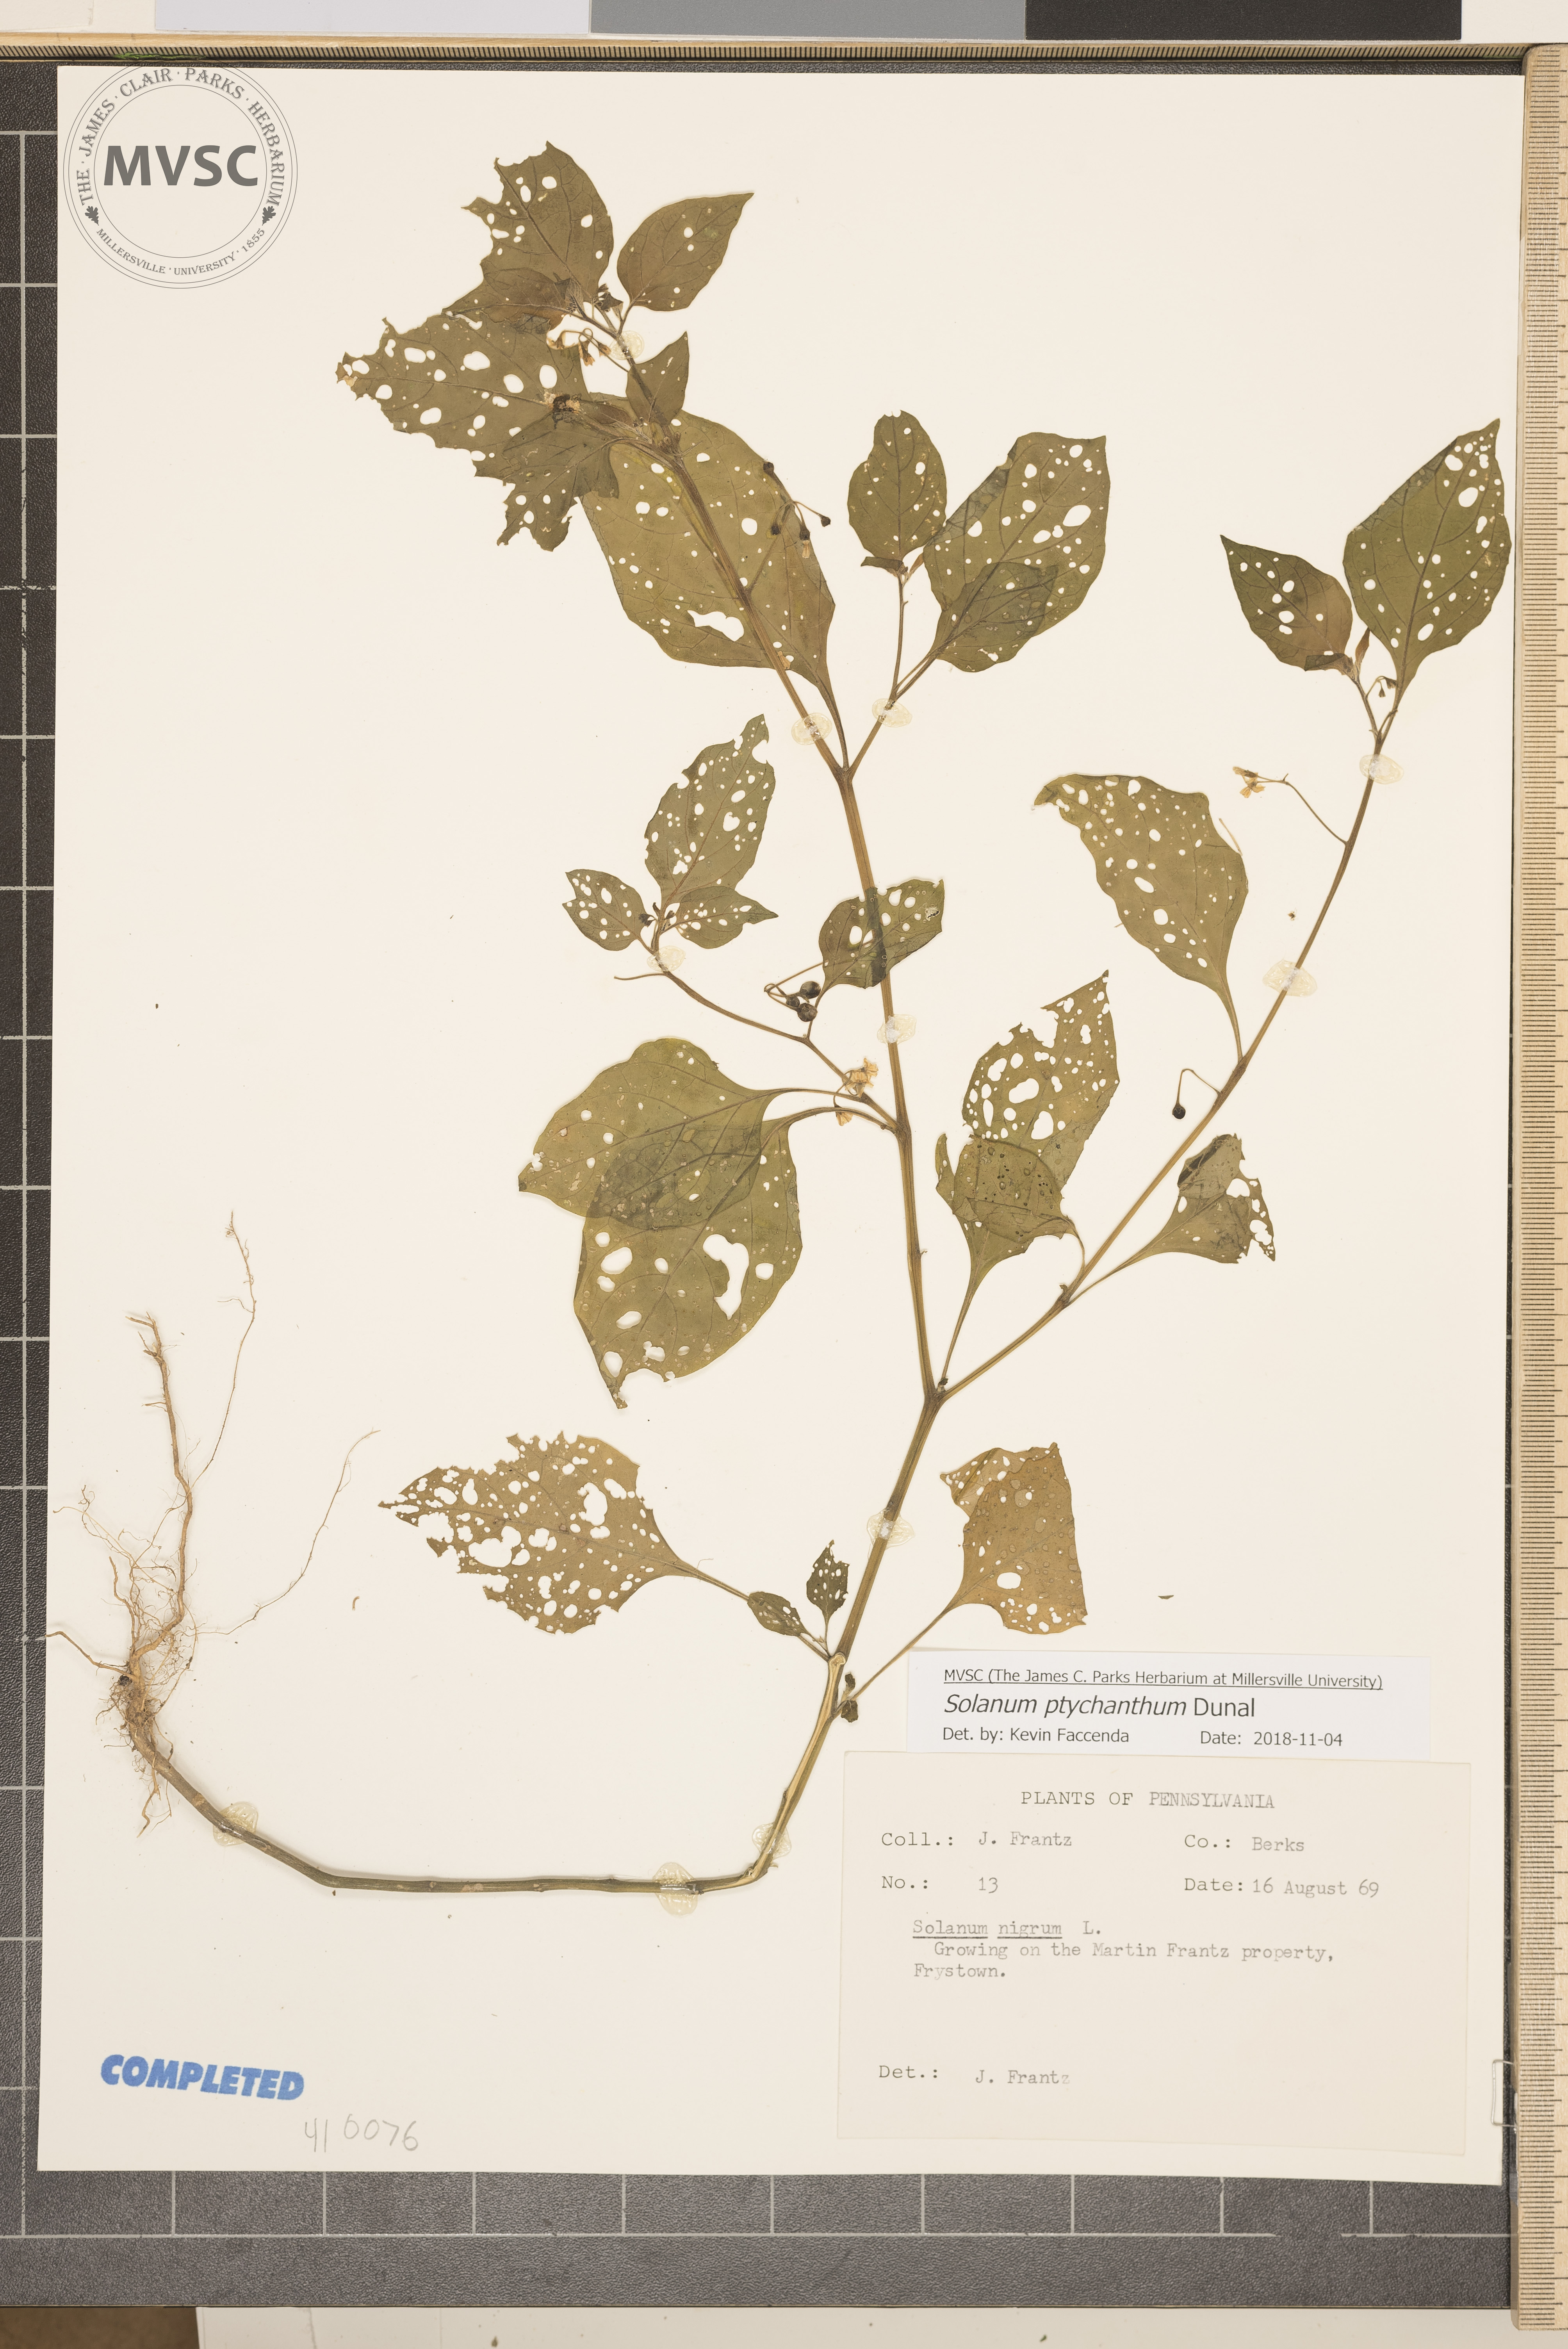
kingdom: Plantae
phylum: Tracheophyta
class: Magnoliopsida
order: Solanales
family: Solanaceae
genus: Solanum
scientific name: Solanum americanum
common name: American black nightshade
